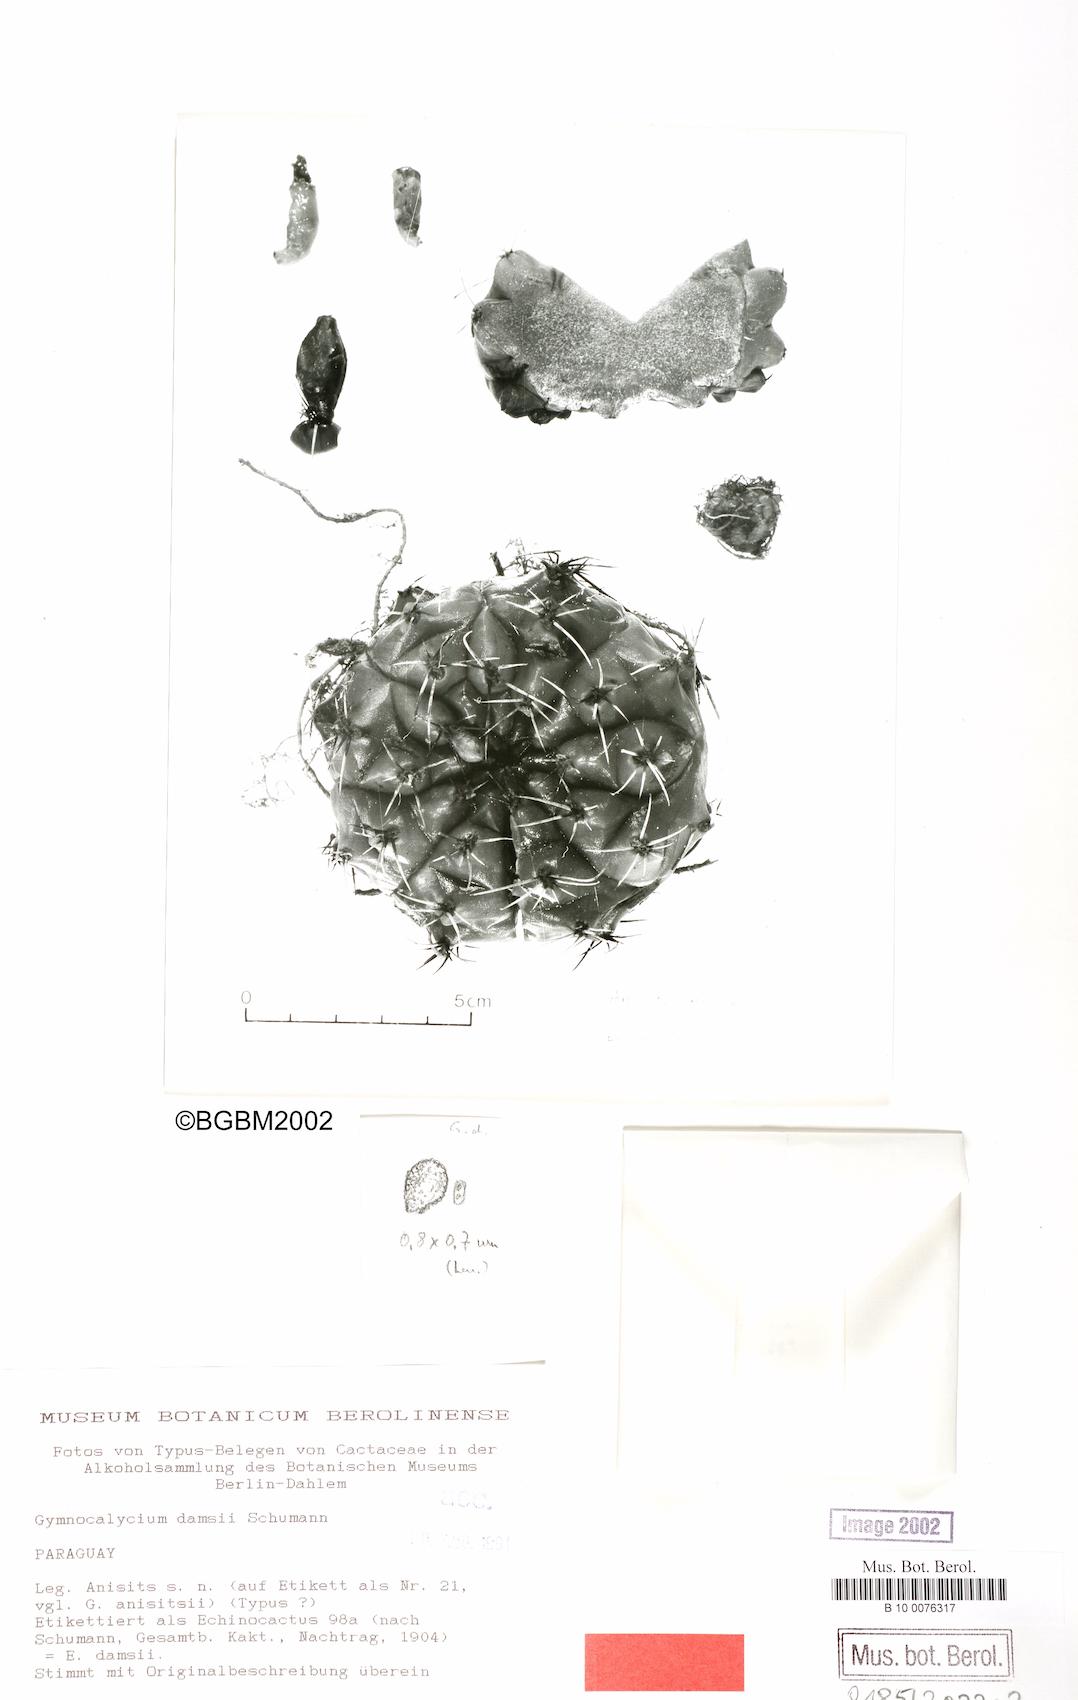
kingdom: Plantae
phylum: Tracheophyta
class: Magnoliopsida
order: Caryophyllales
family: Cactaceae
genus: Gymnocalycium
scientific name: Gymnocalycium anisitsii
